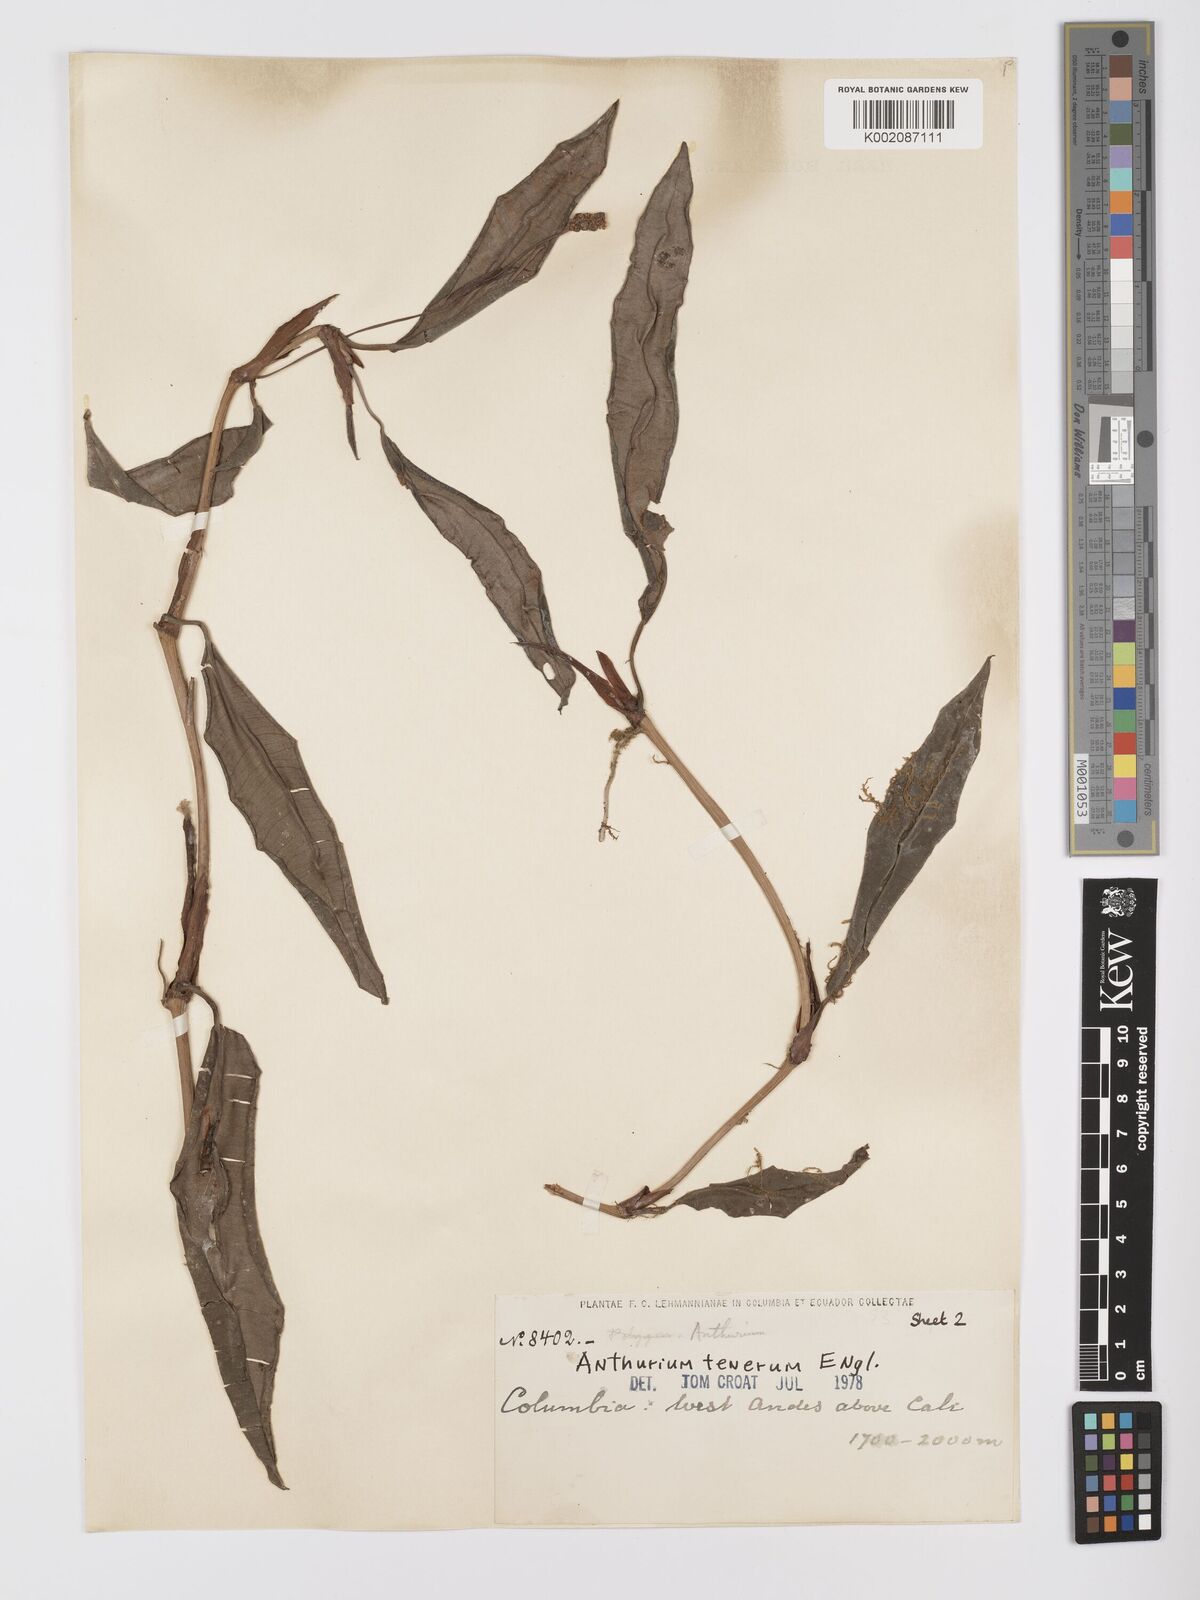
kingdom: Plantae
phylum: Tracheophyta
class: Liliopsida
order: Alismatales
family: Araceae
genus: Anthurium
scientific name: Anthurium tenerum
